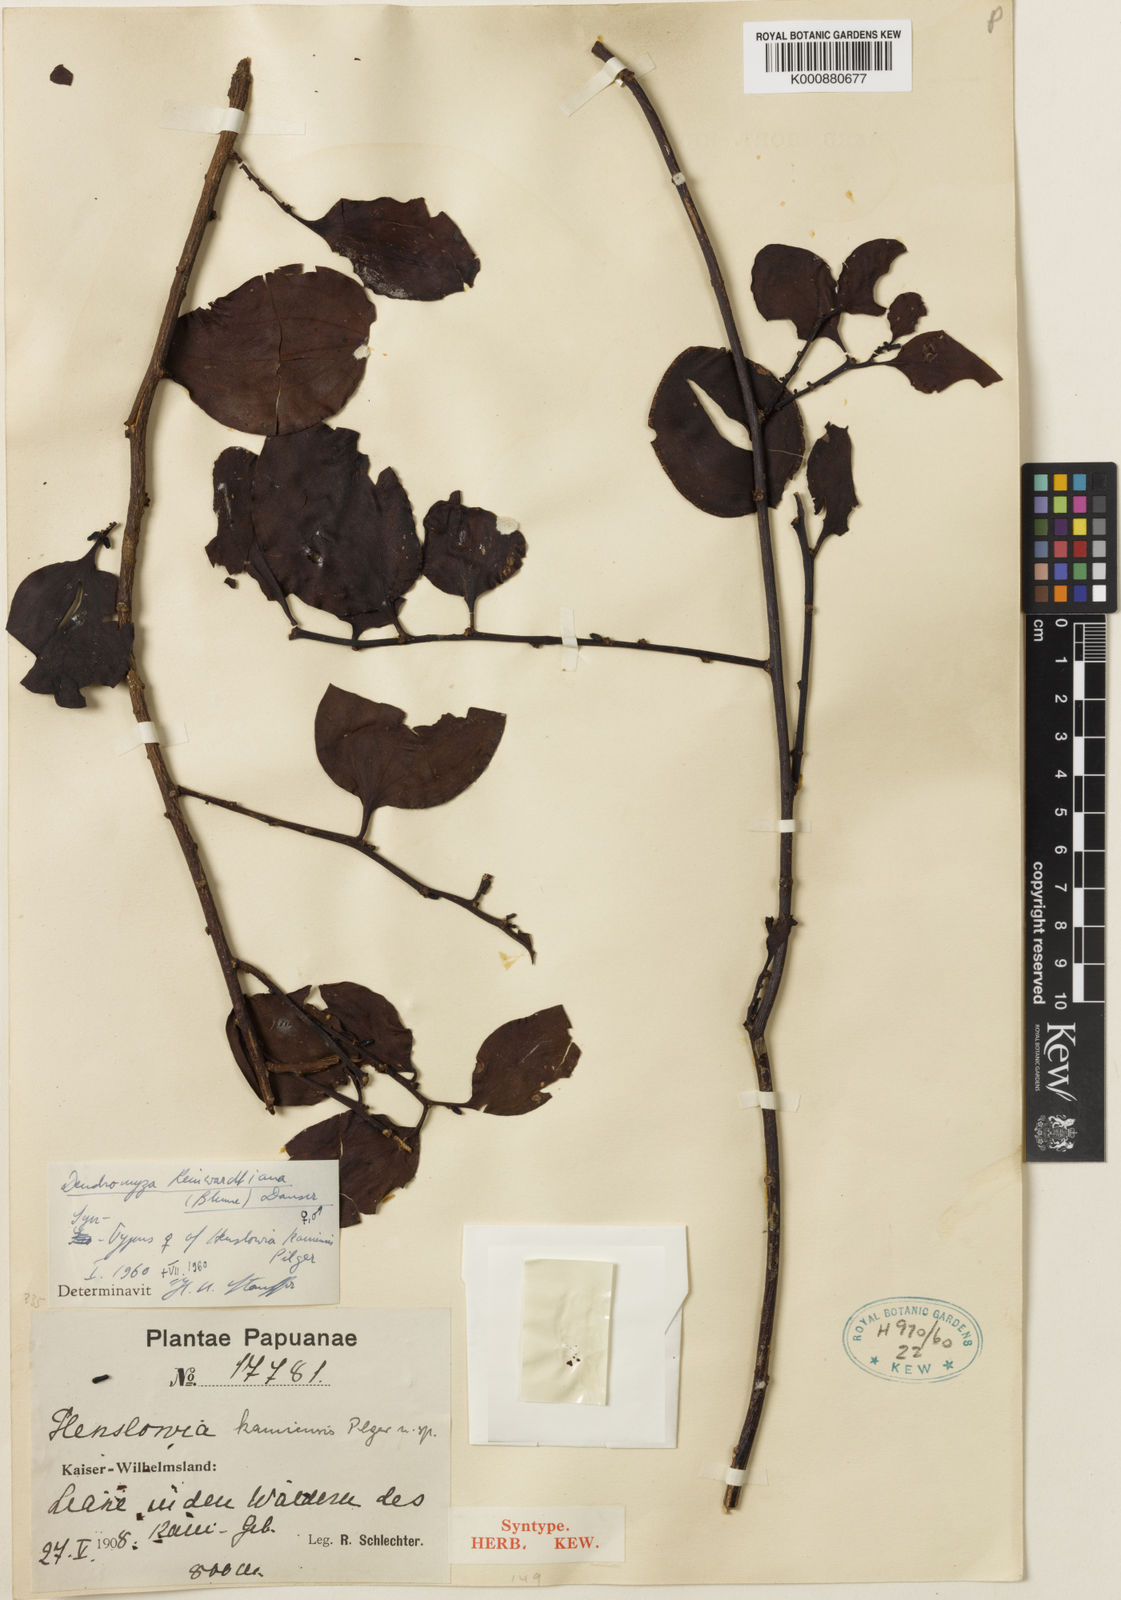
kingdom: Plantae
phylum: Tracheophyta
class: Magnoliopsida
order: Santalales
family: Amphorogynaceae
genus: Dendromyza
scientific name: Dendromyza reinwardtiana
